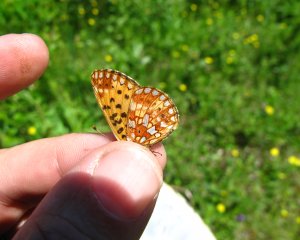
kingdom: Animalia
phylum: Arthropoda
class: Insecta
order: Lepidoptera
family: Nymphalidae
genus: Boloria
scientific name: Boloria selene
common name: Silver-bordered Fritillary
